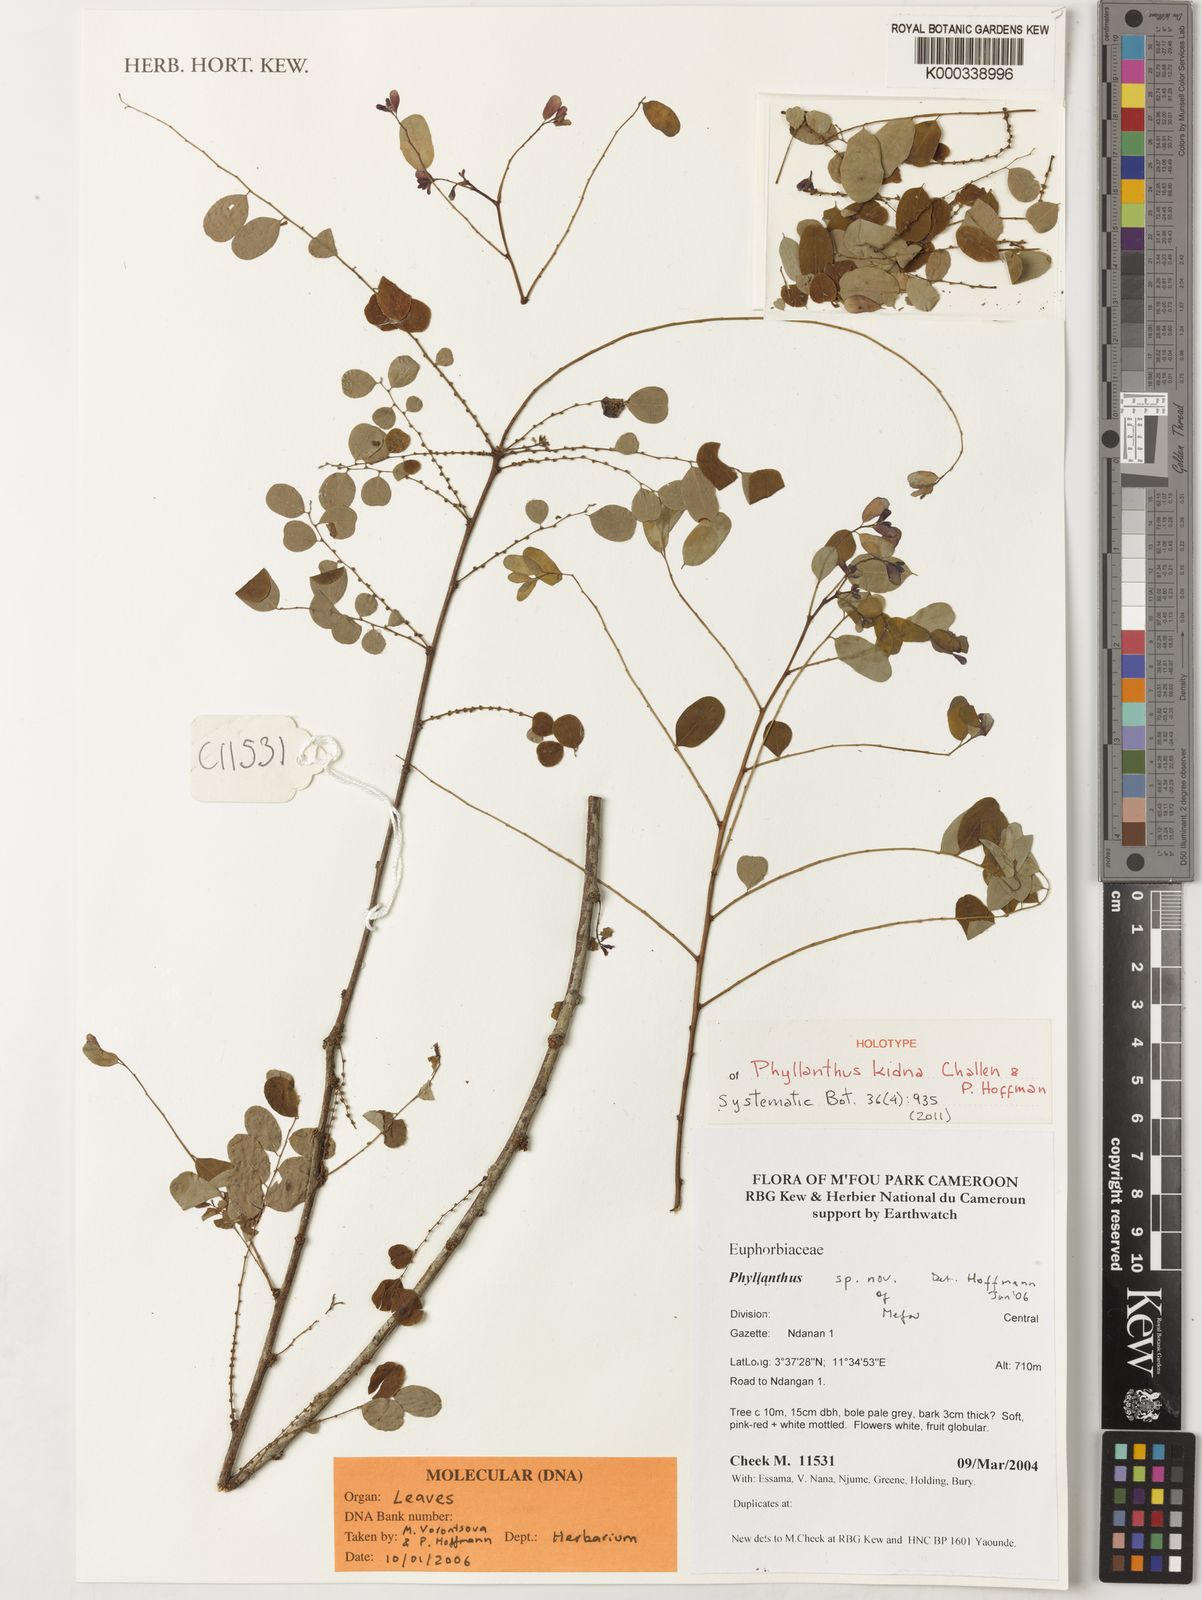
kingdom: Plantae
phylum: Tracheophyta
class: Magnoliopsida
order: Malpighiales
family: Phyllanthaceae
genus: Phyllanthus
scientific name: Phyllanthus kidna
